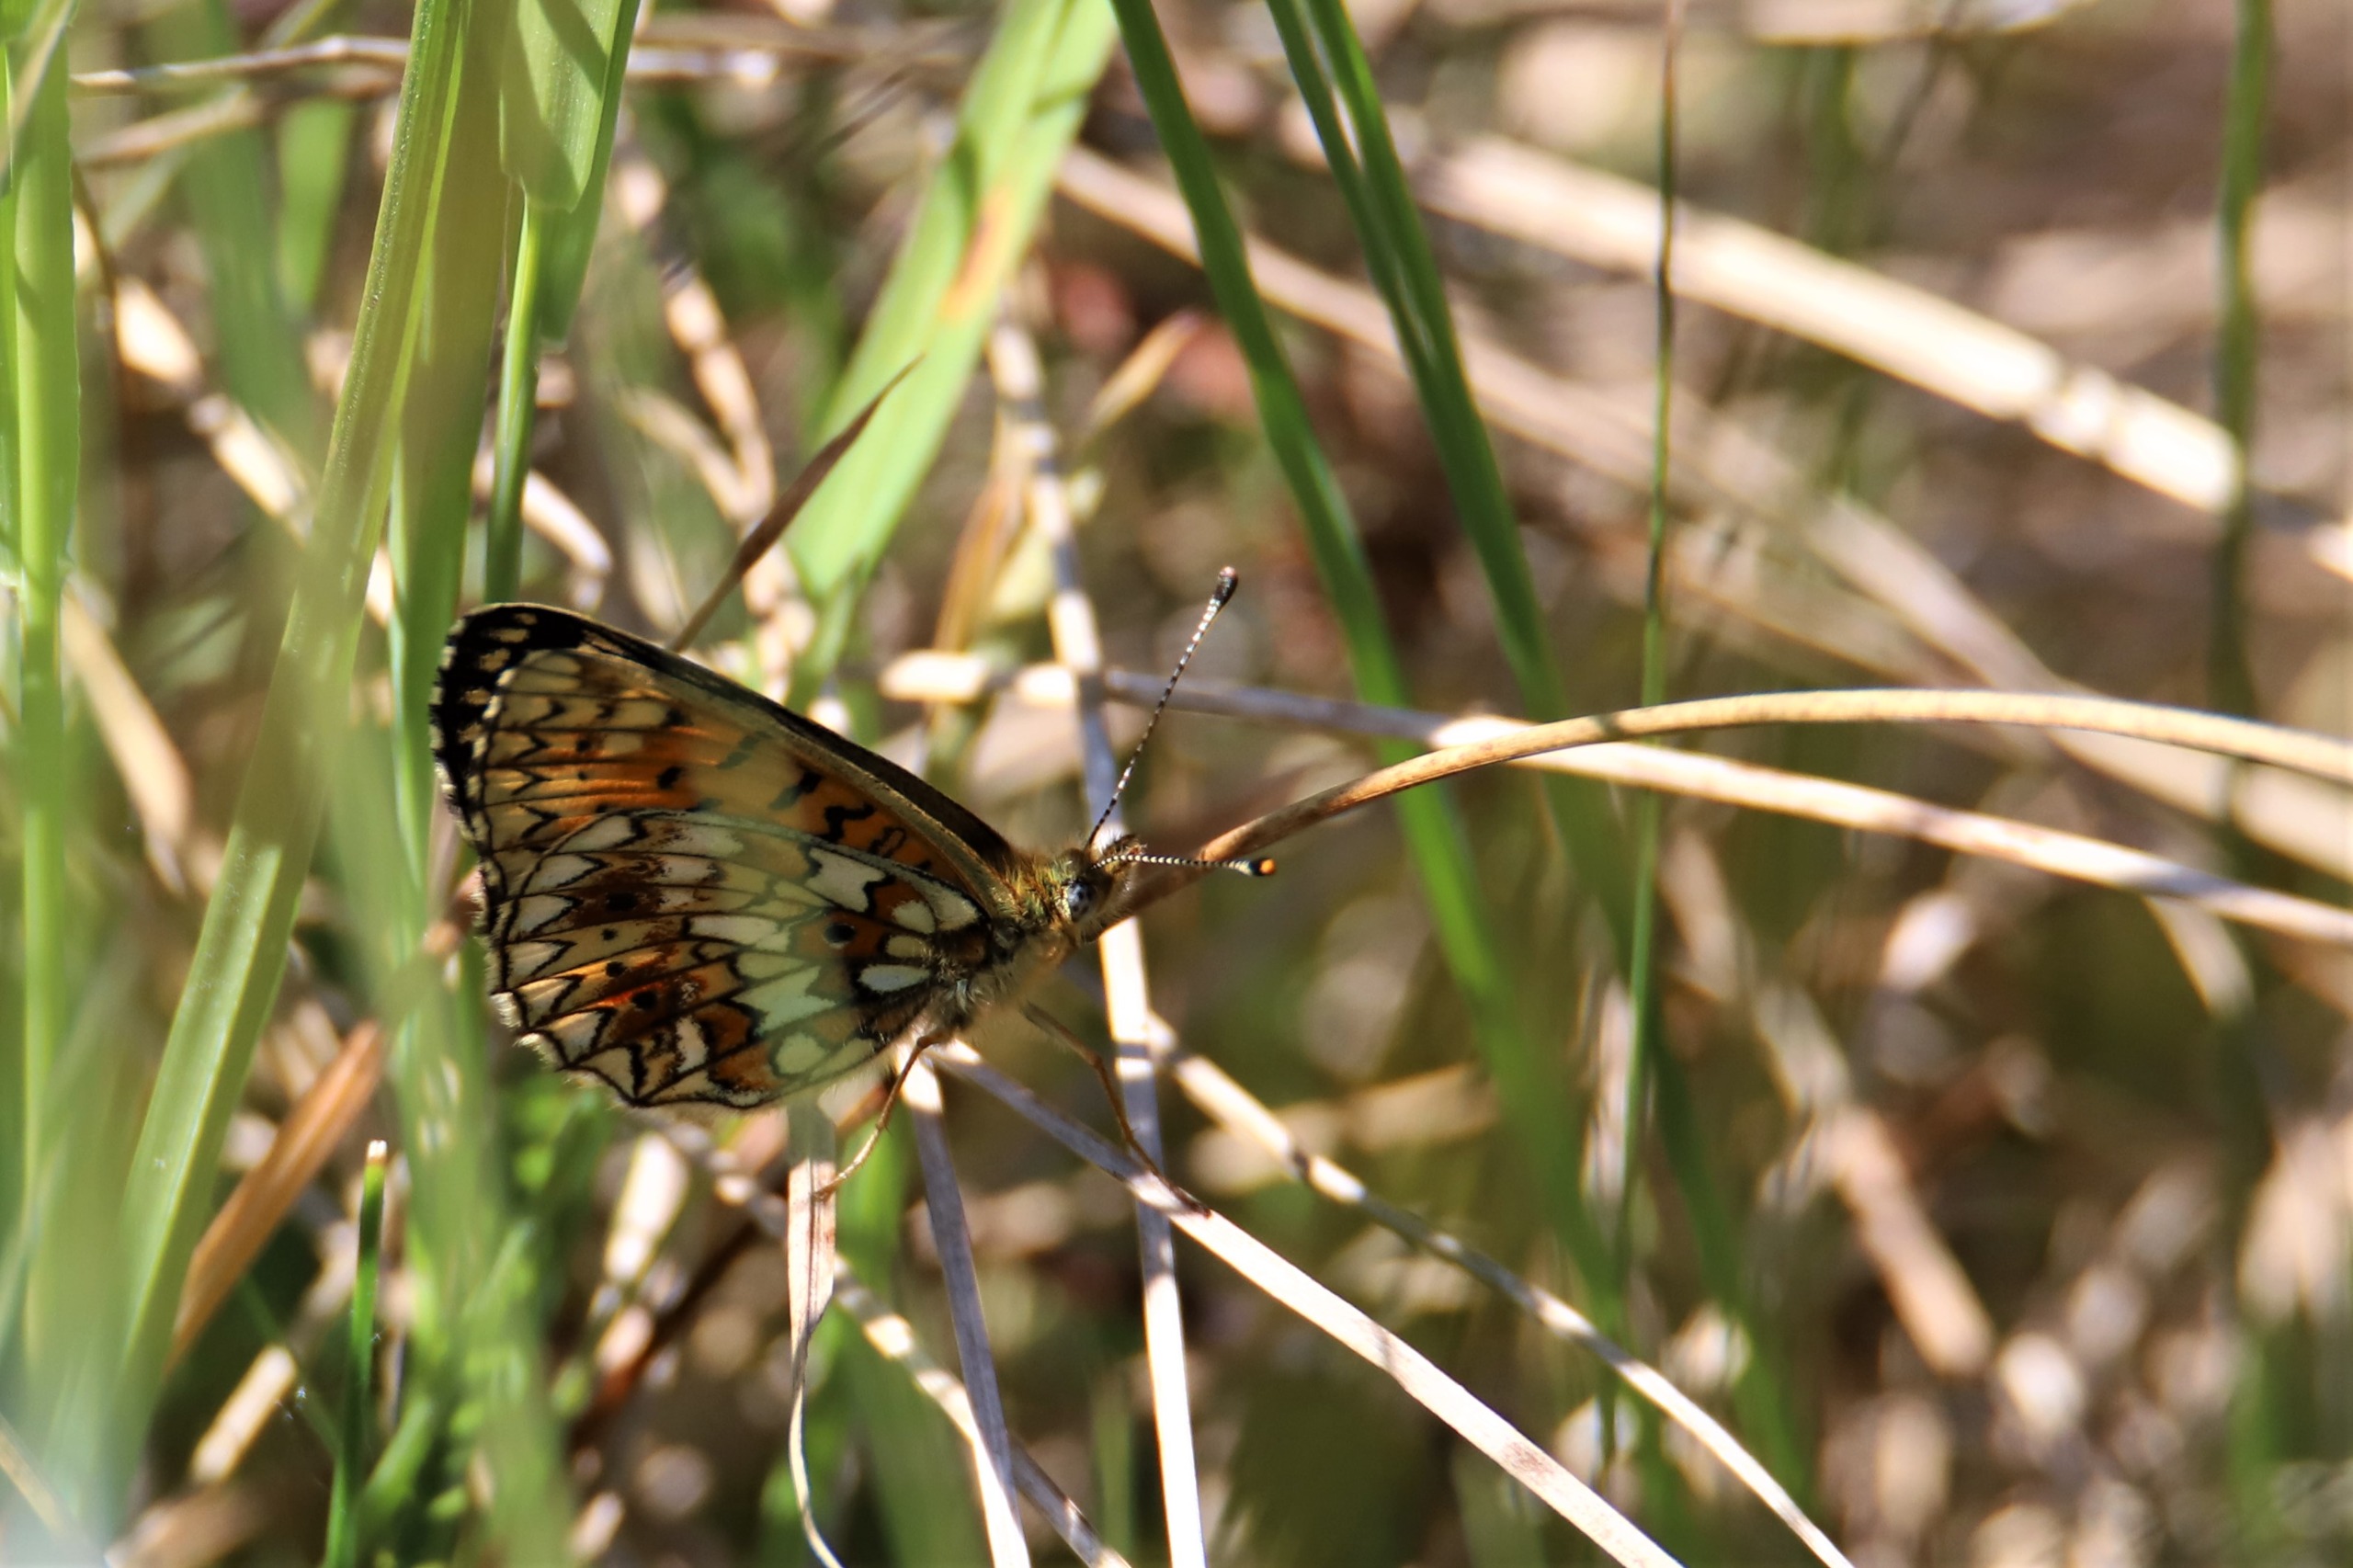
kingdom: Animalia
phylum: Arthropoda
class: Insecta
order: Lepidoptera
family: Nymphalidae
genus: Boloria
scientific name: Boloria selene
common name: Brunlig perlemorsommerfugl
